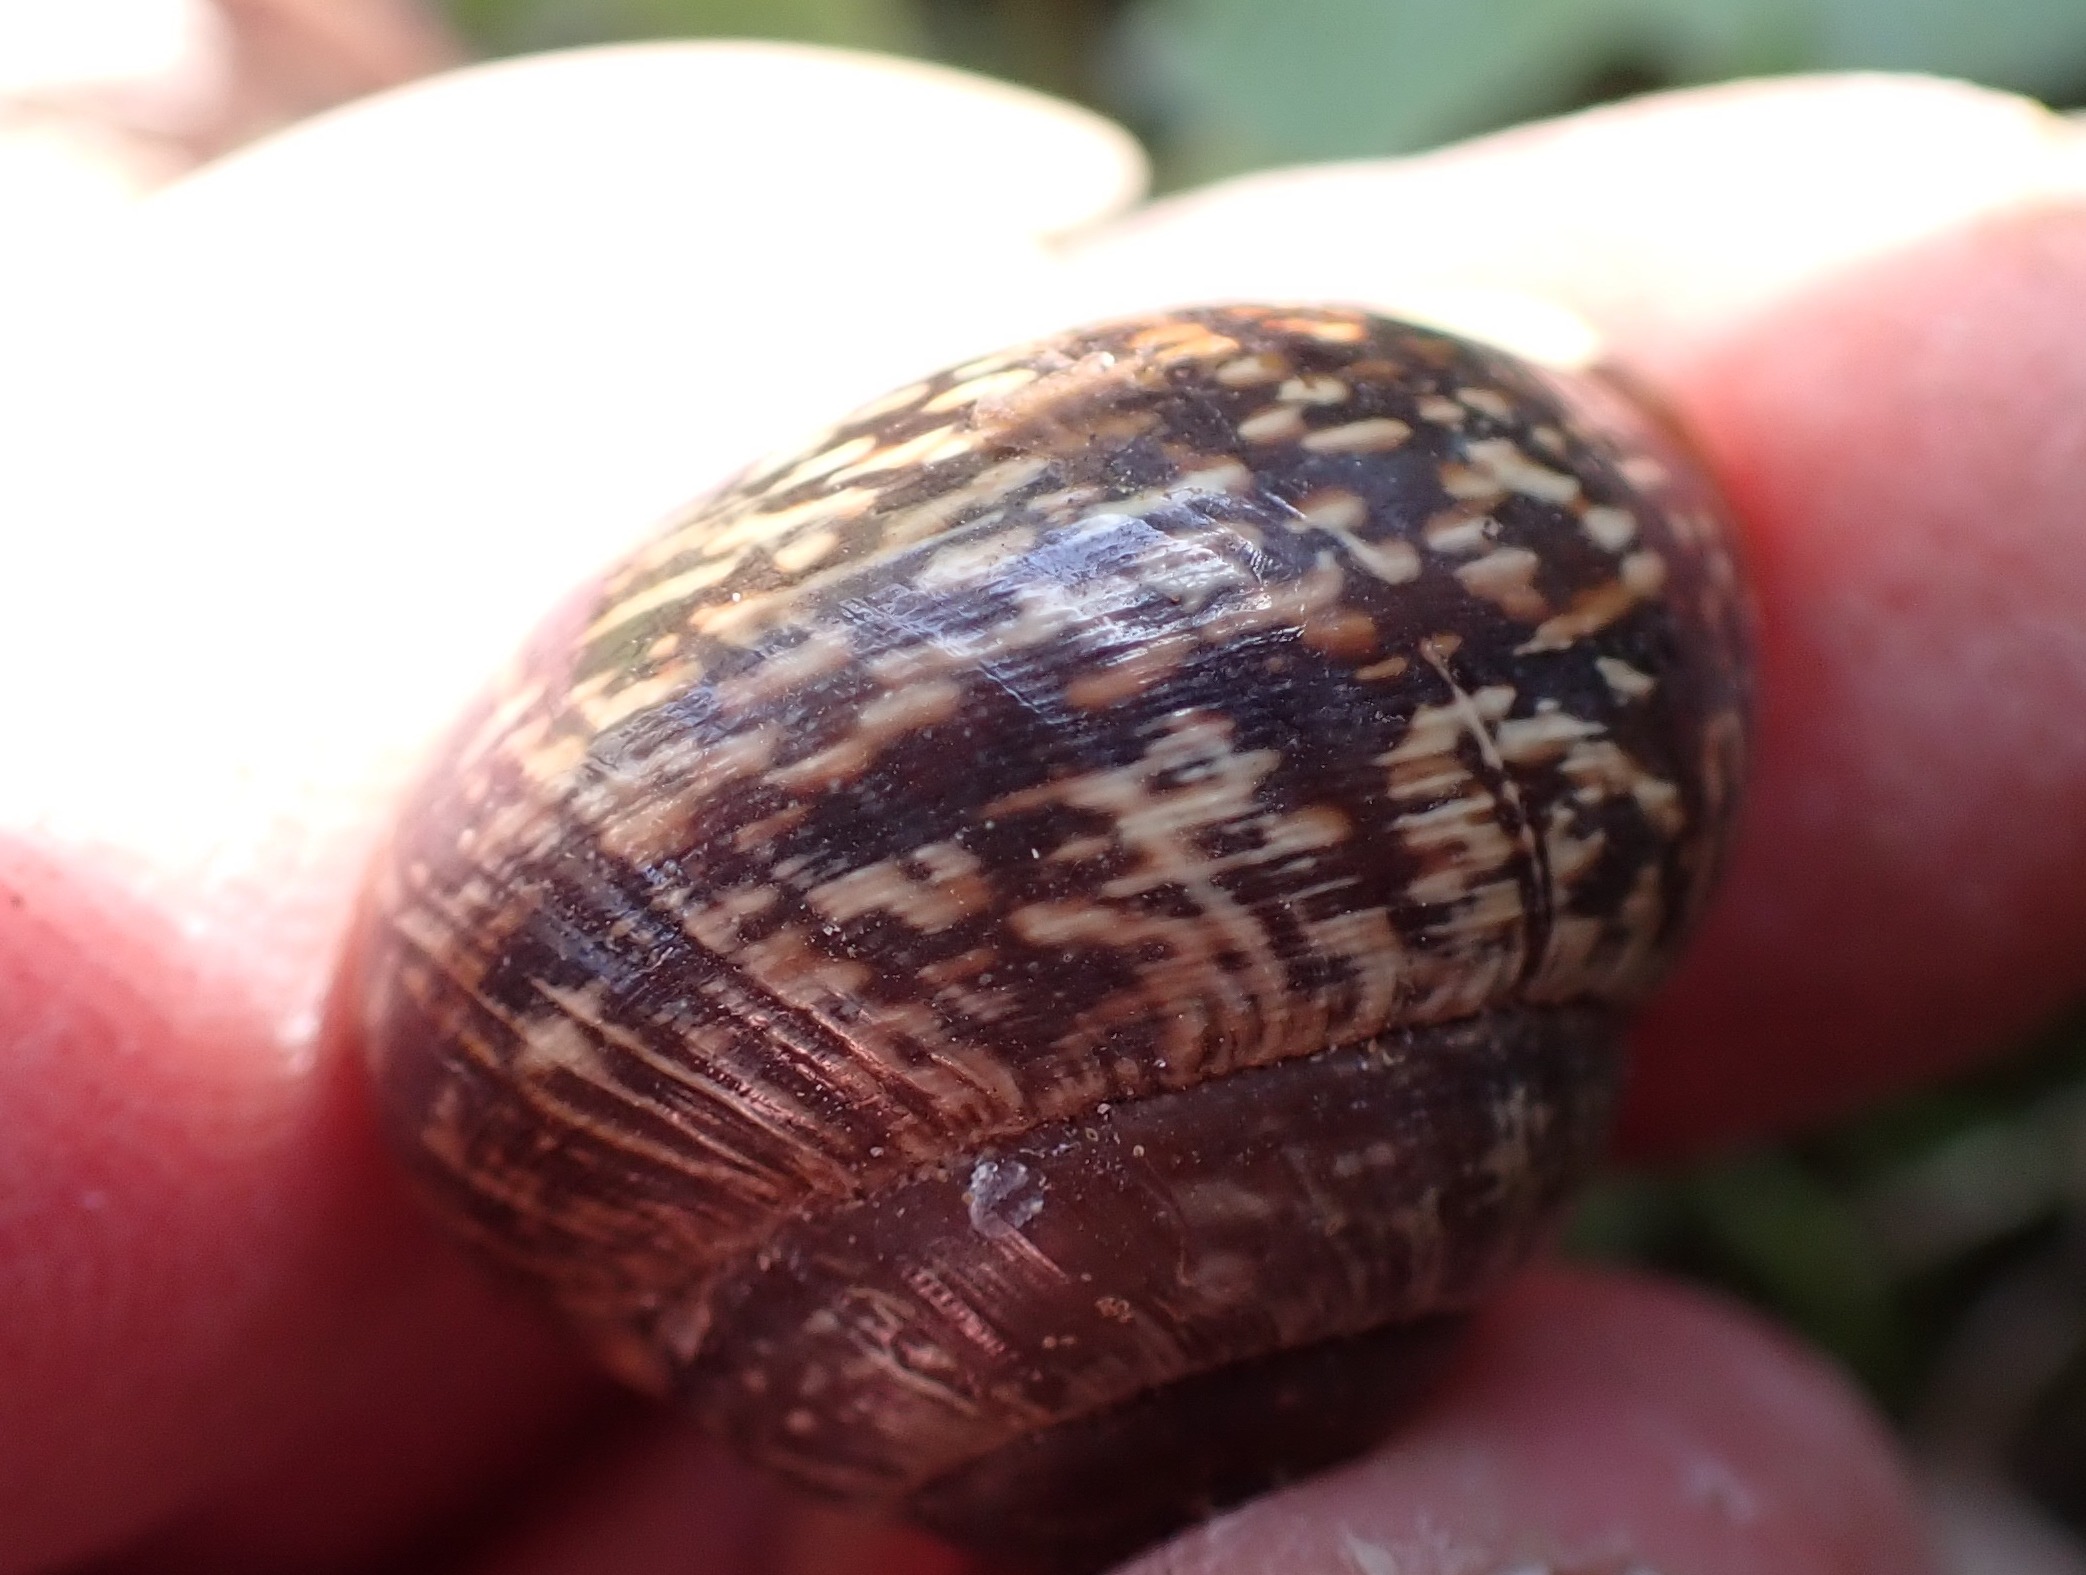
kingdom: Animalia
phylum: Mollusca
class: Gastropoda
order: Stylommatophora
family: Helicidae
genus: Arianta
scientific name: Arianta arbustorum
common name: Kratsnegl
